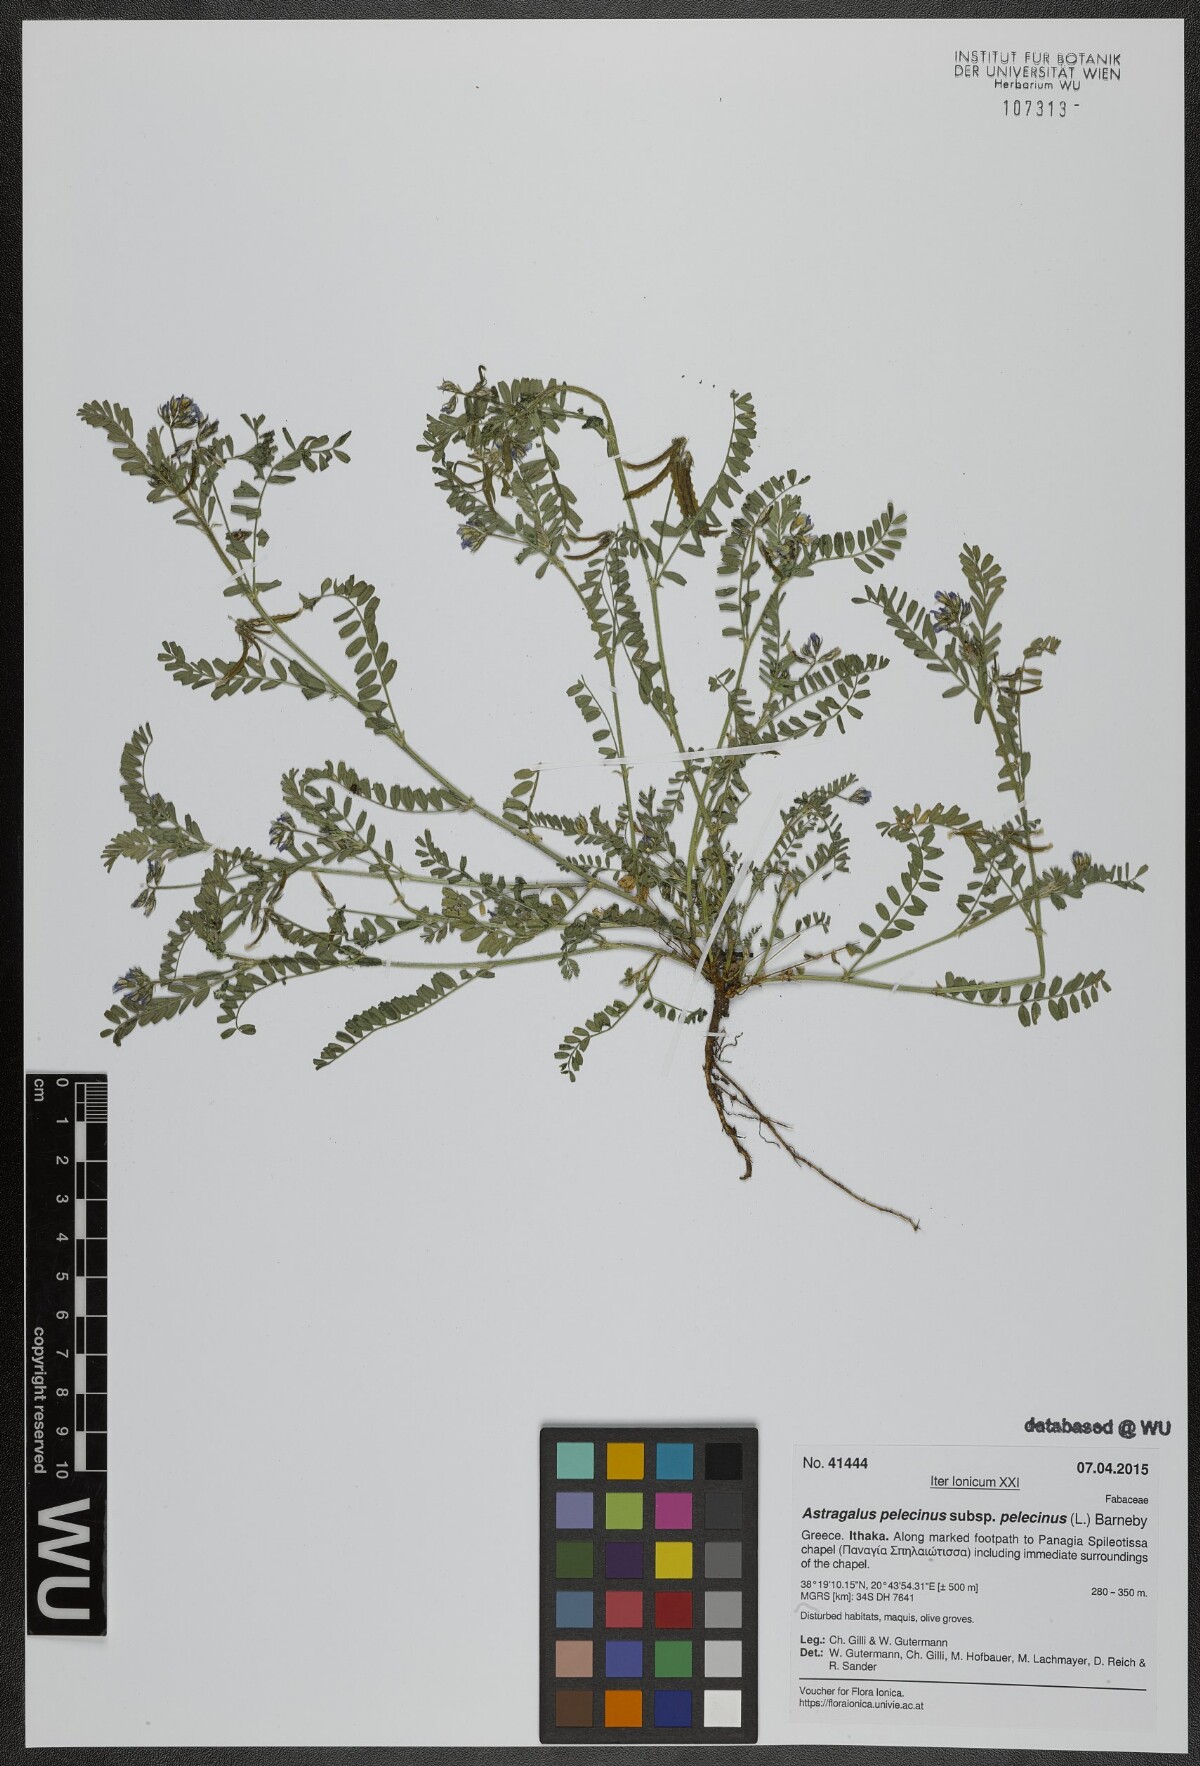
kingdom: Plantae
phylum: Tracheophyta
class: Magnoliopsida
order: Fabales
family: Fabaceae
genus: Biserrula
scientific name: Biserrula pelecinus
